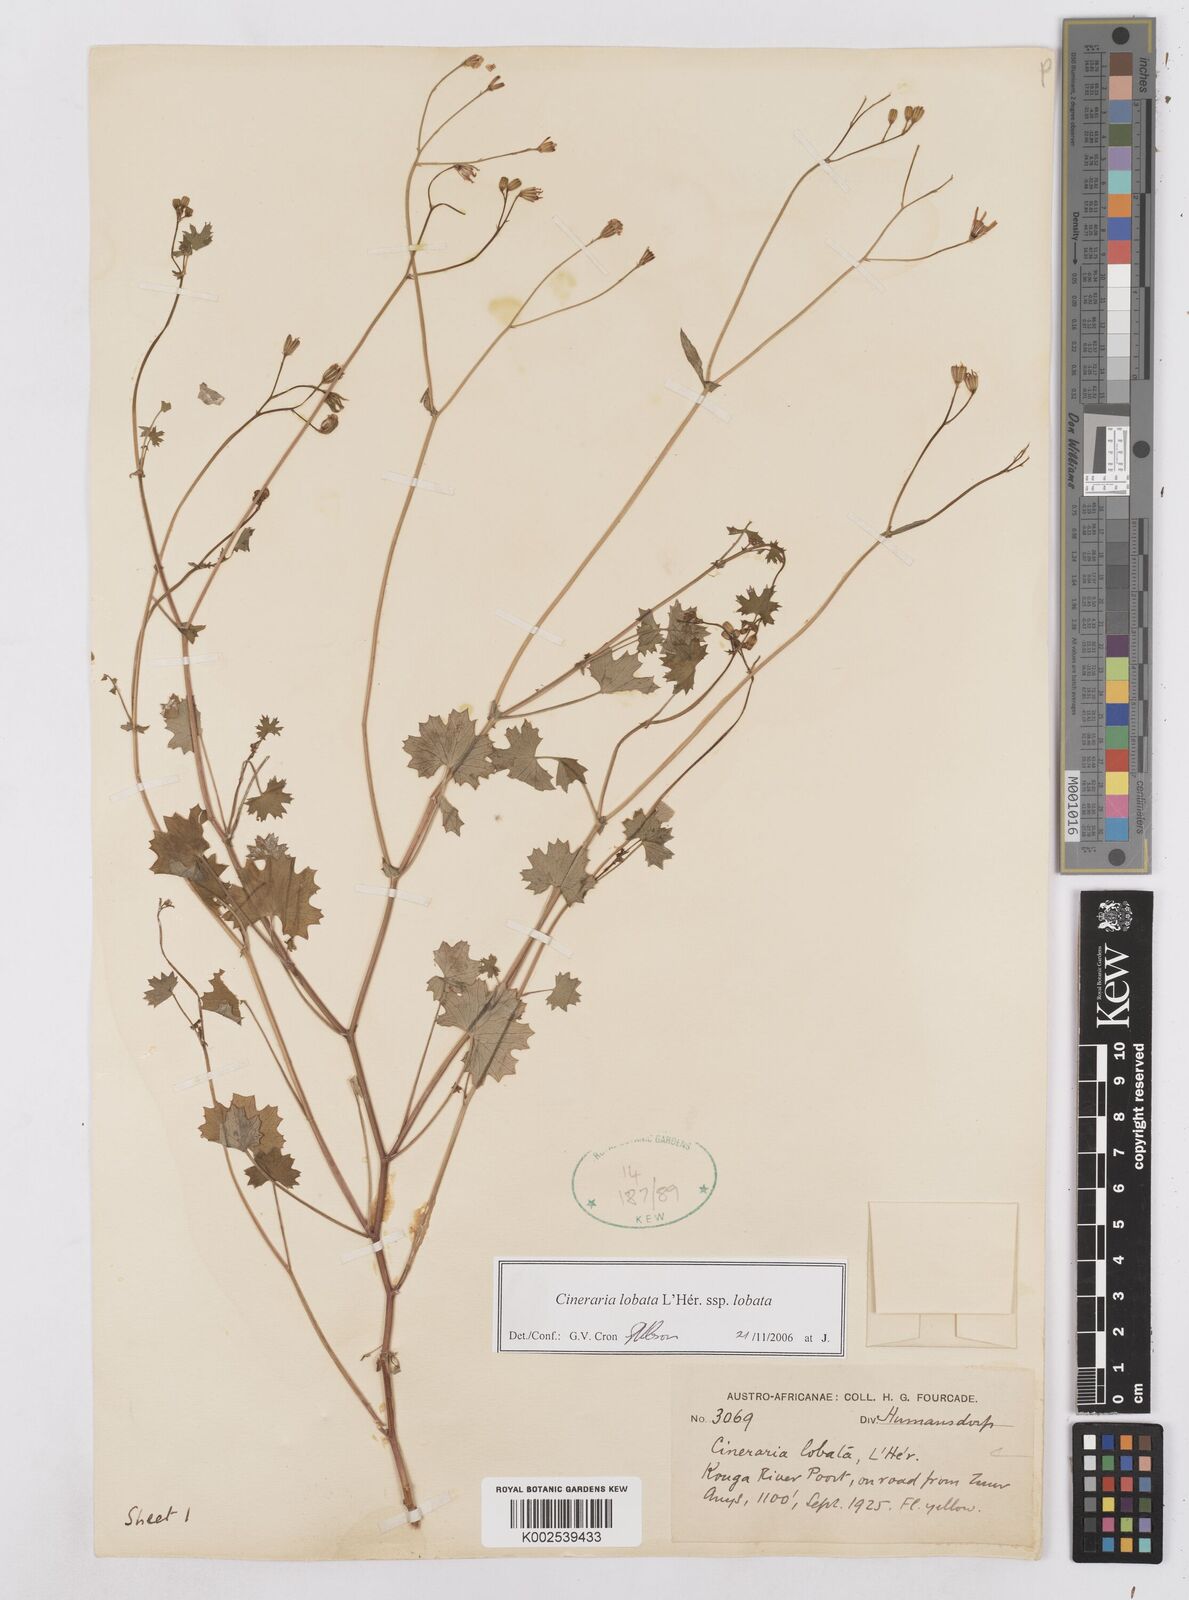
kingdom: Plantae
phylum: Tracheophyta
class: Magnoliopsida
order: Asterales
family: Asteraceae
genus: Cineraria
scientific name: Cineraria lobata
